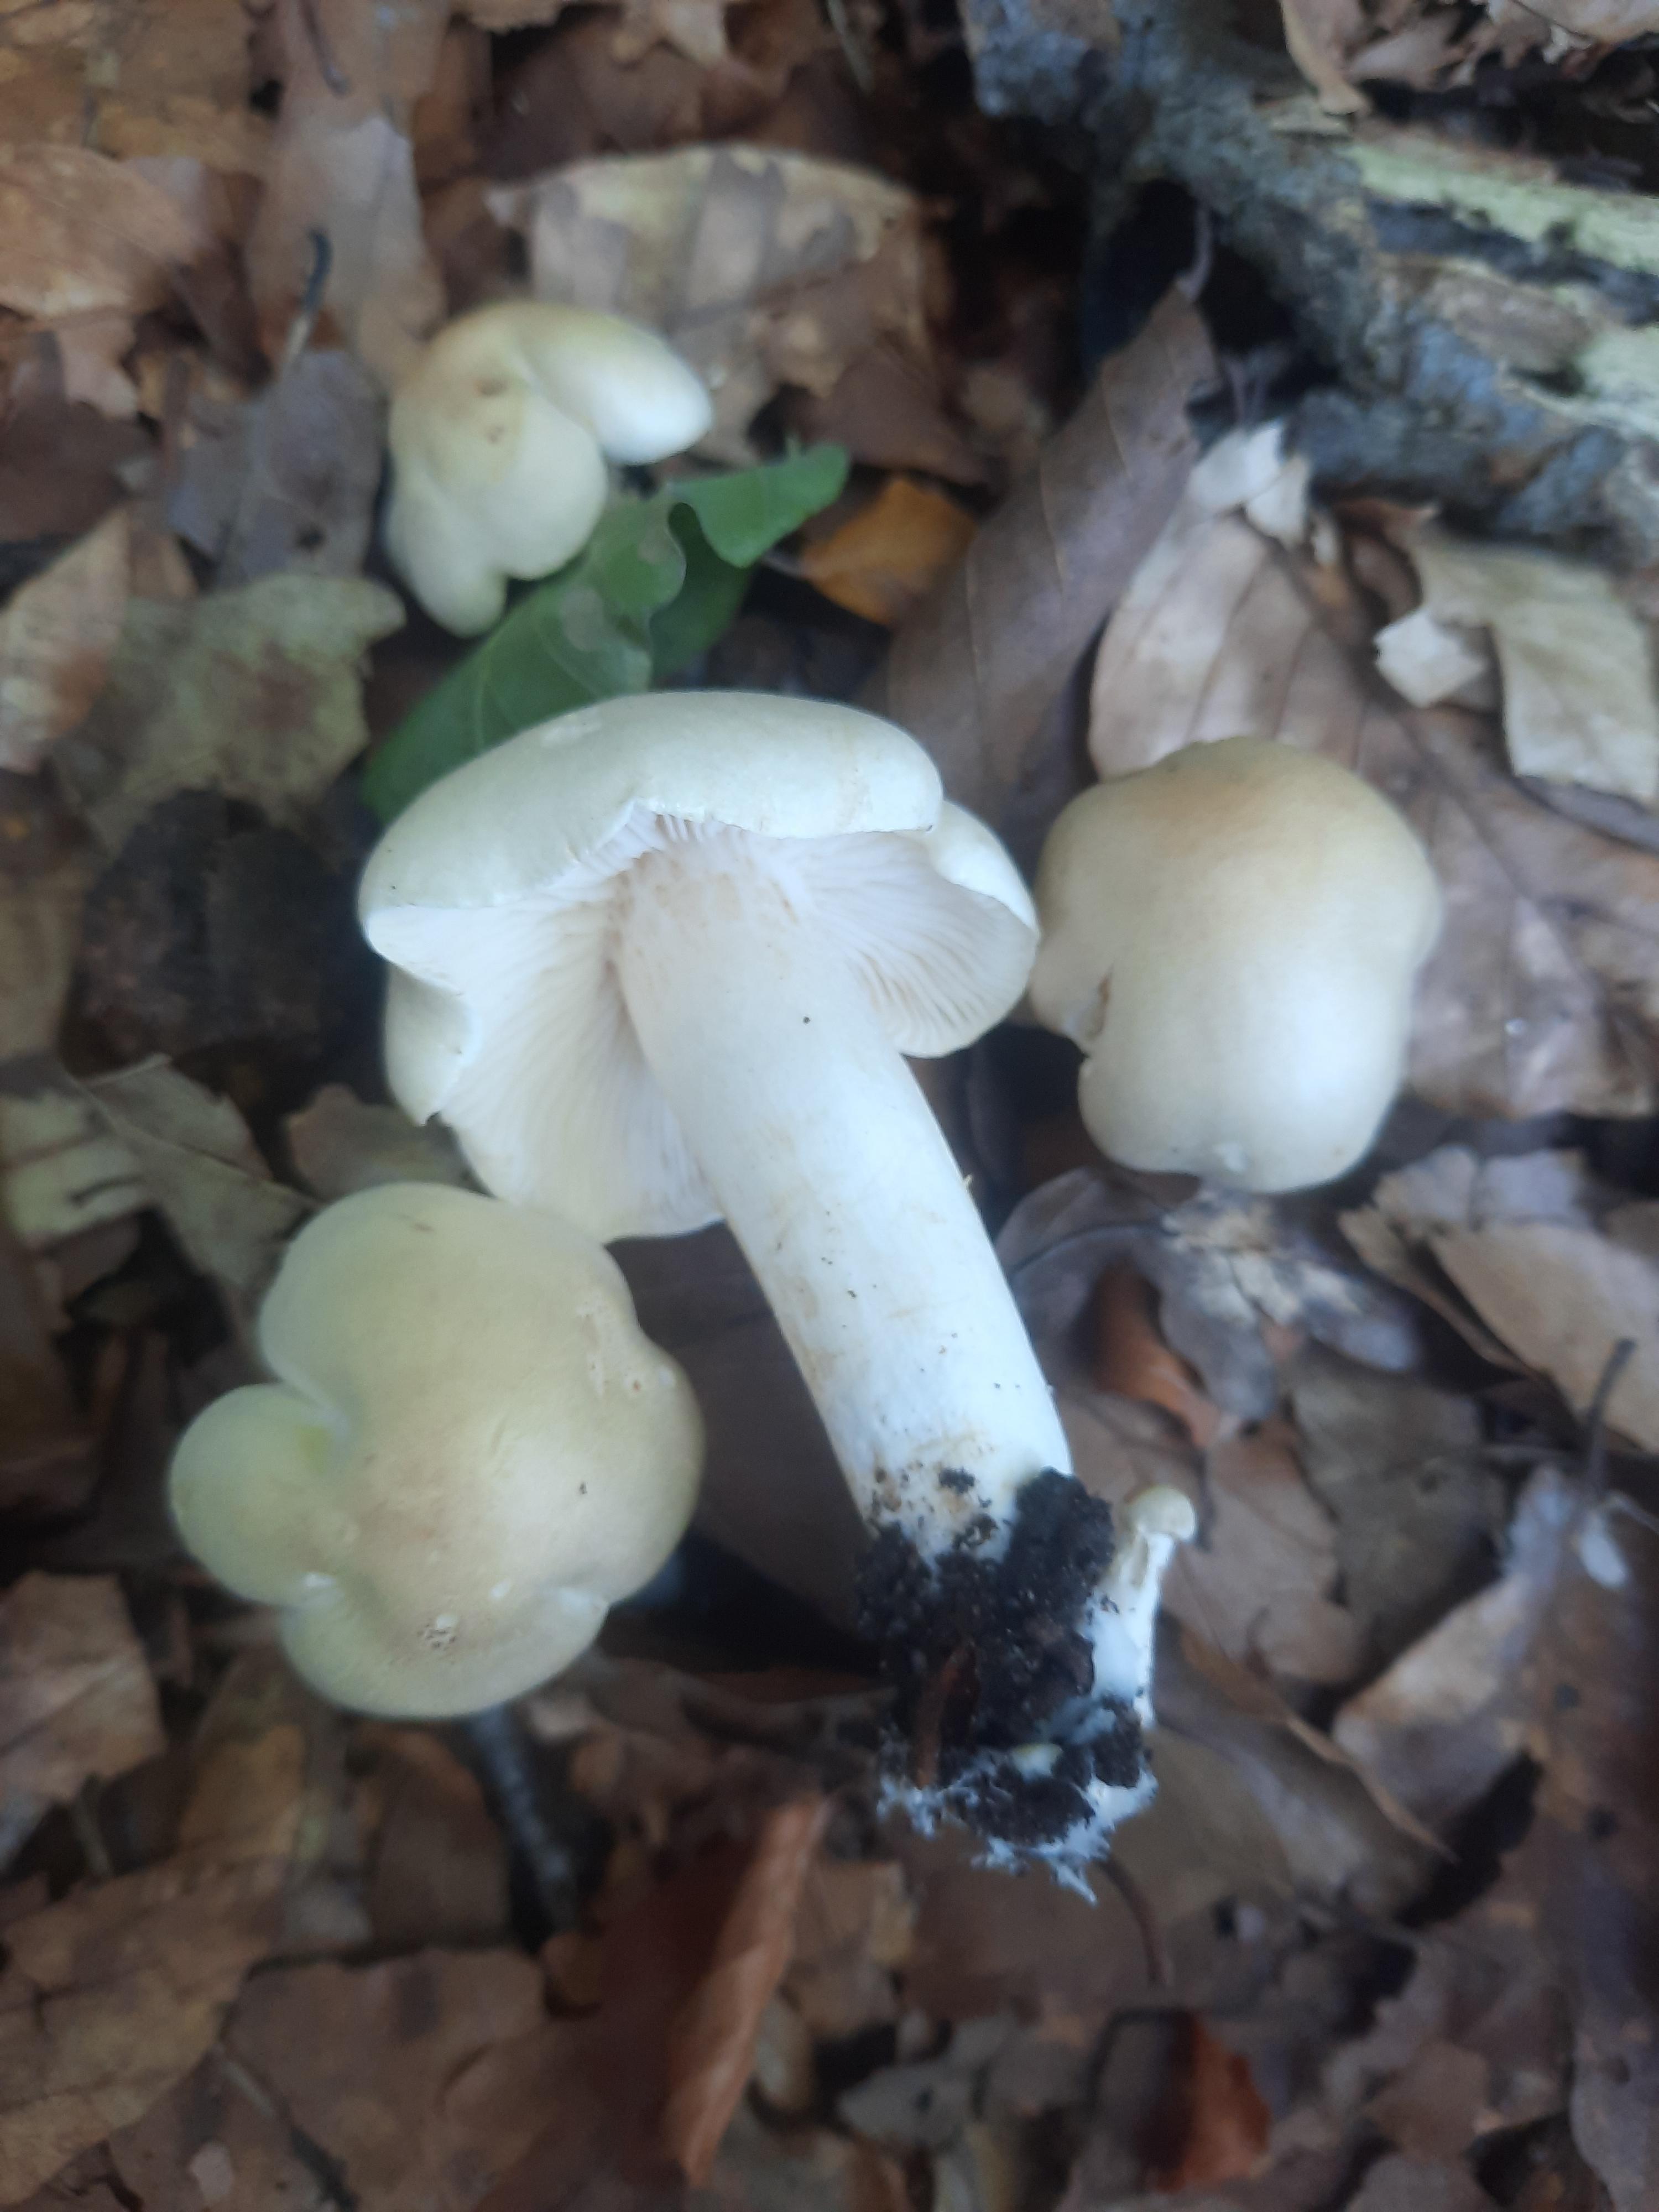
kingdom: Fungi
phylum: Basidiomycota
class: Agaricomycetes
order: Agaricales
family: Tricholomataceae
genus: Tricholoma
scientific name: Tricholoma lascivum
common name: stinkende ridderhat
